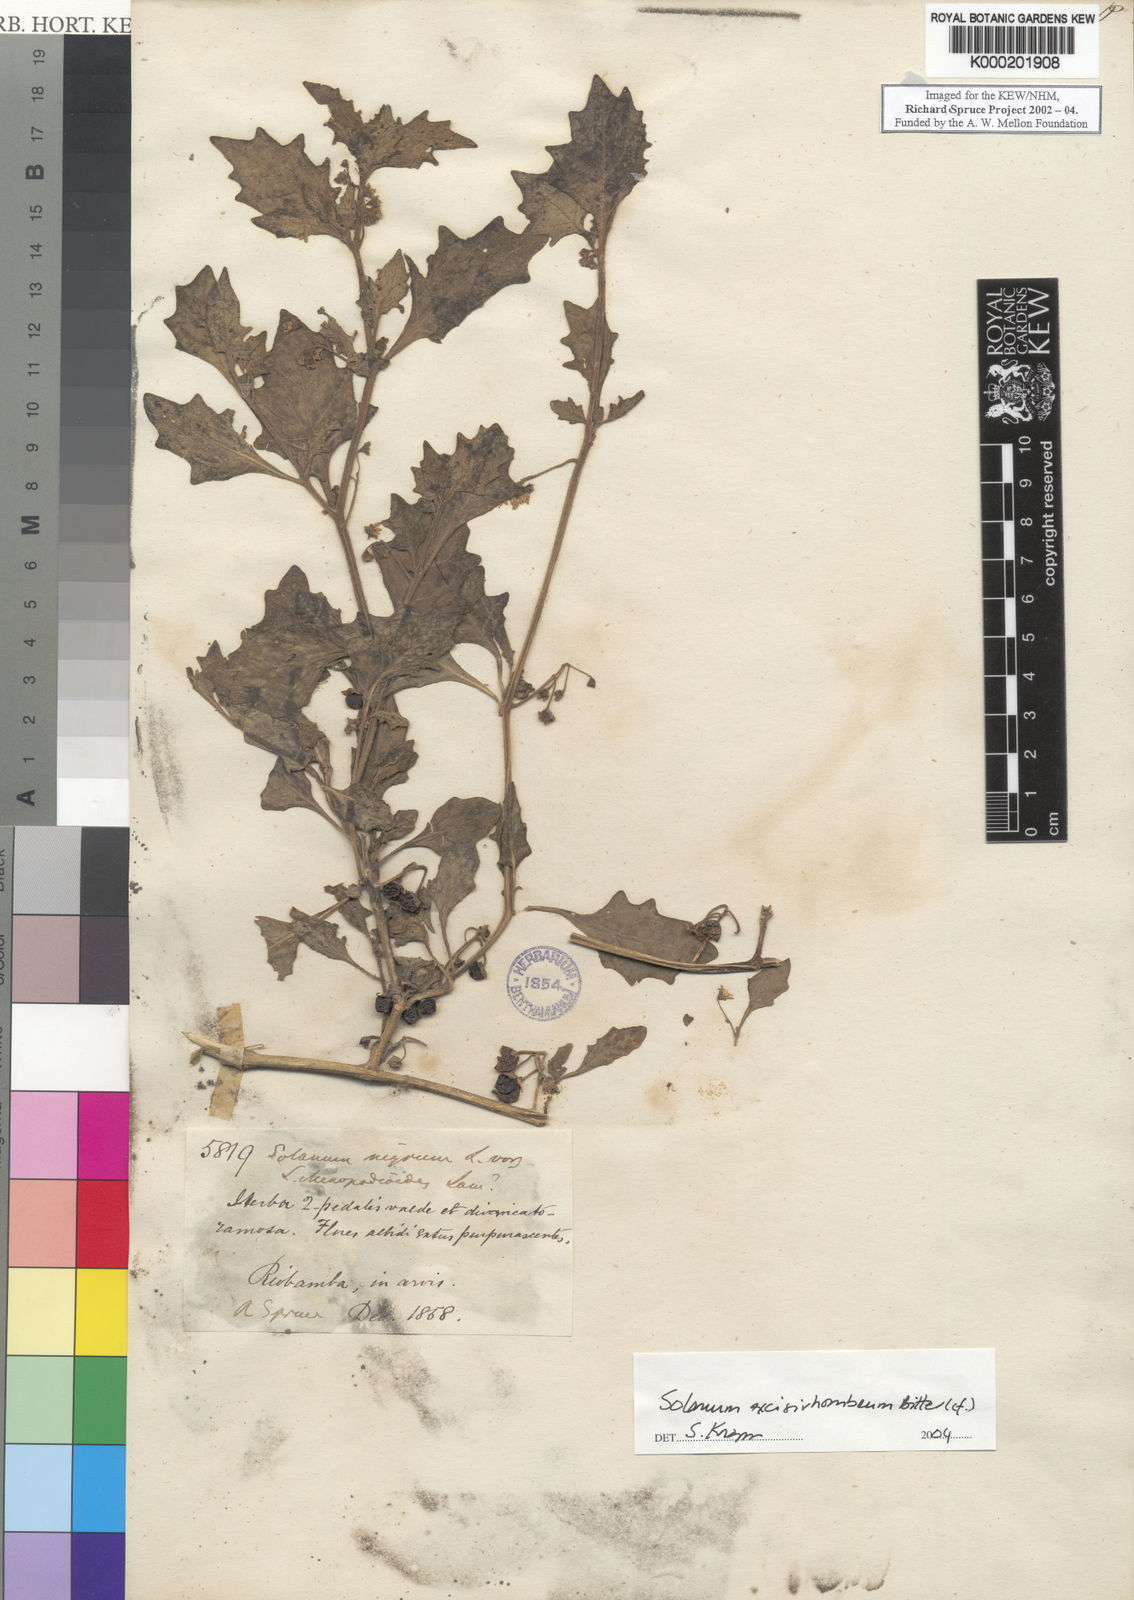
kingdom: Plantae
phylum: Tracheophyta
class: Magnoliopsida
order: Solanales
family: Solanaceae
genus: Solanum
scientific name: Solanum grandidentatum
